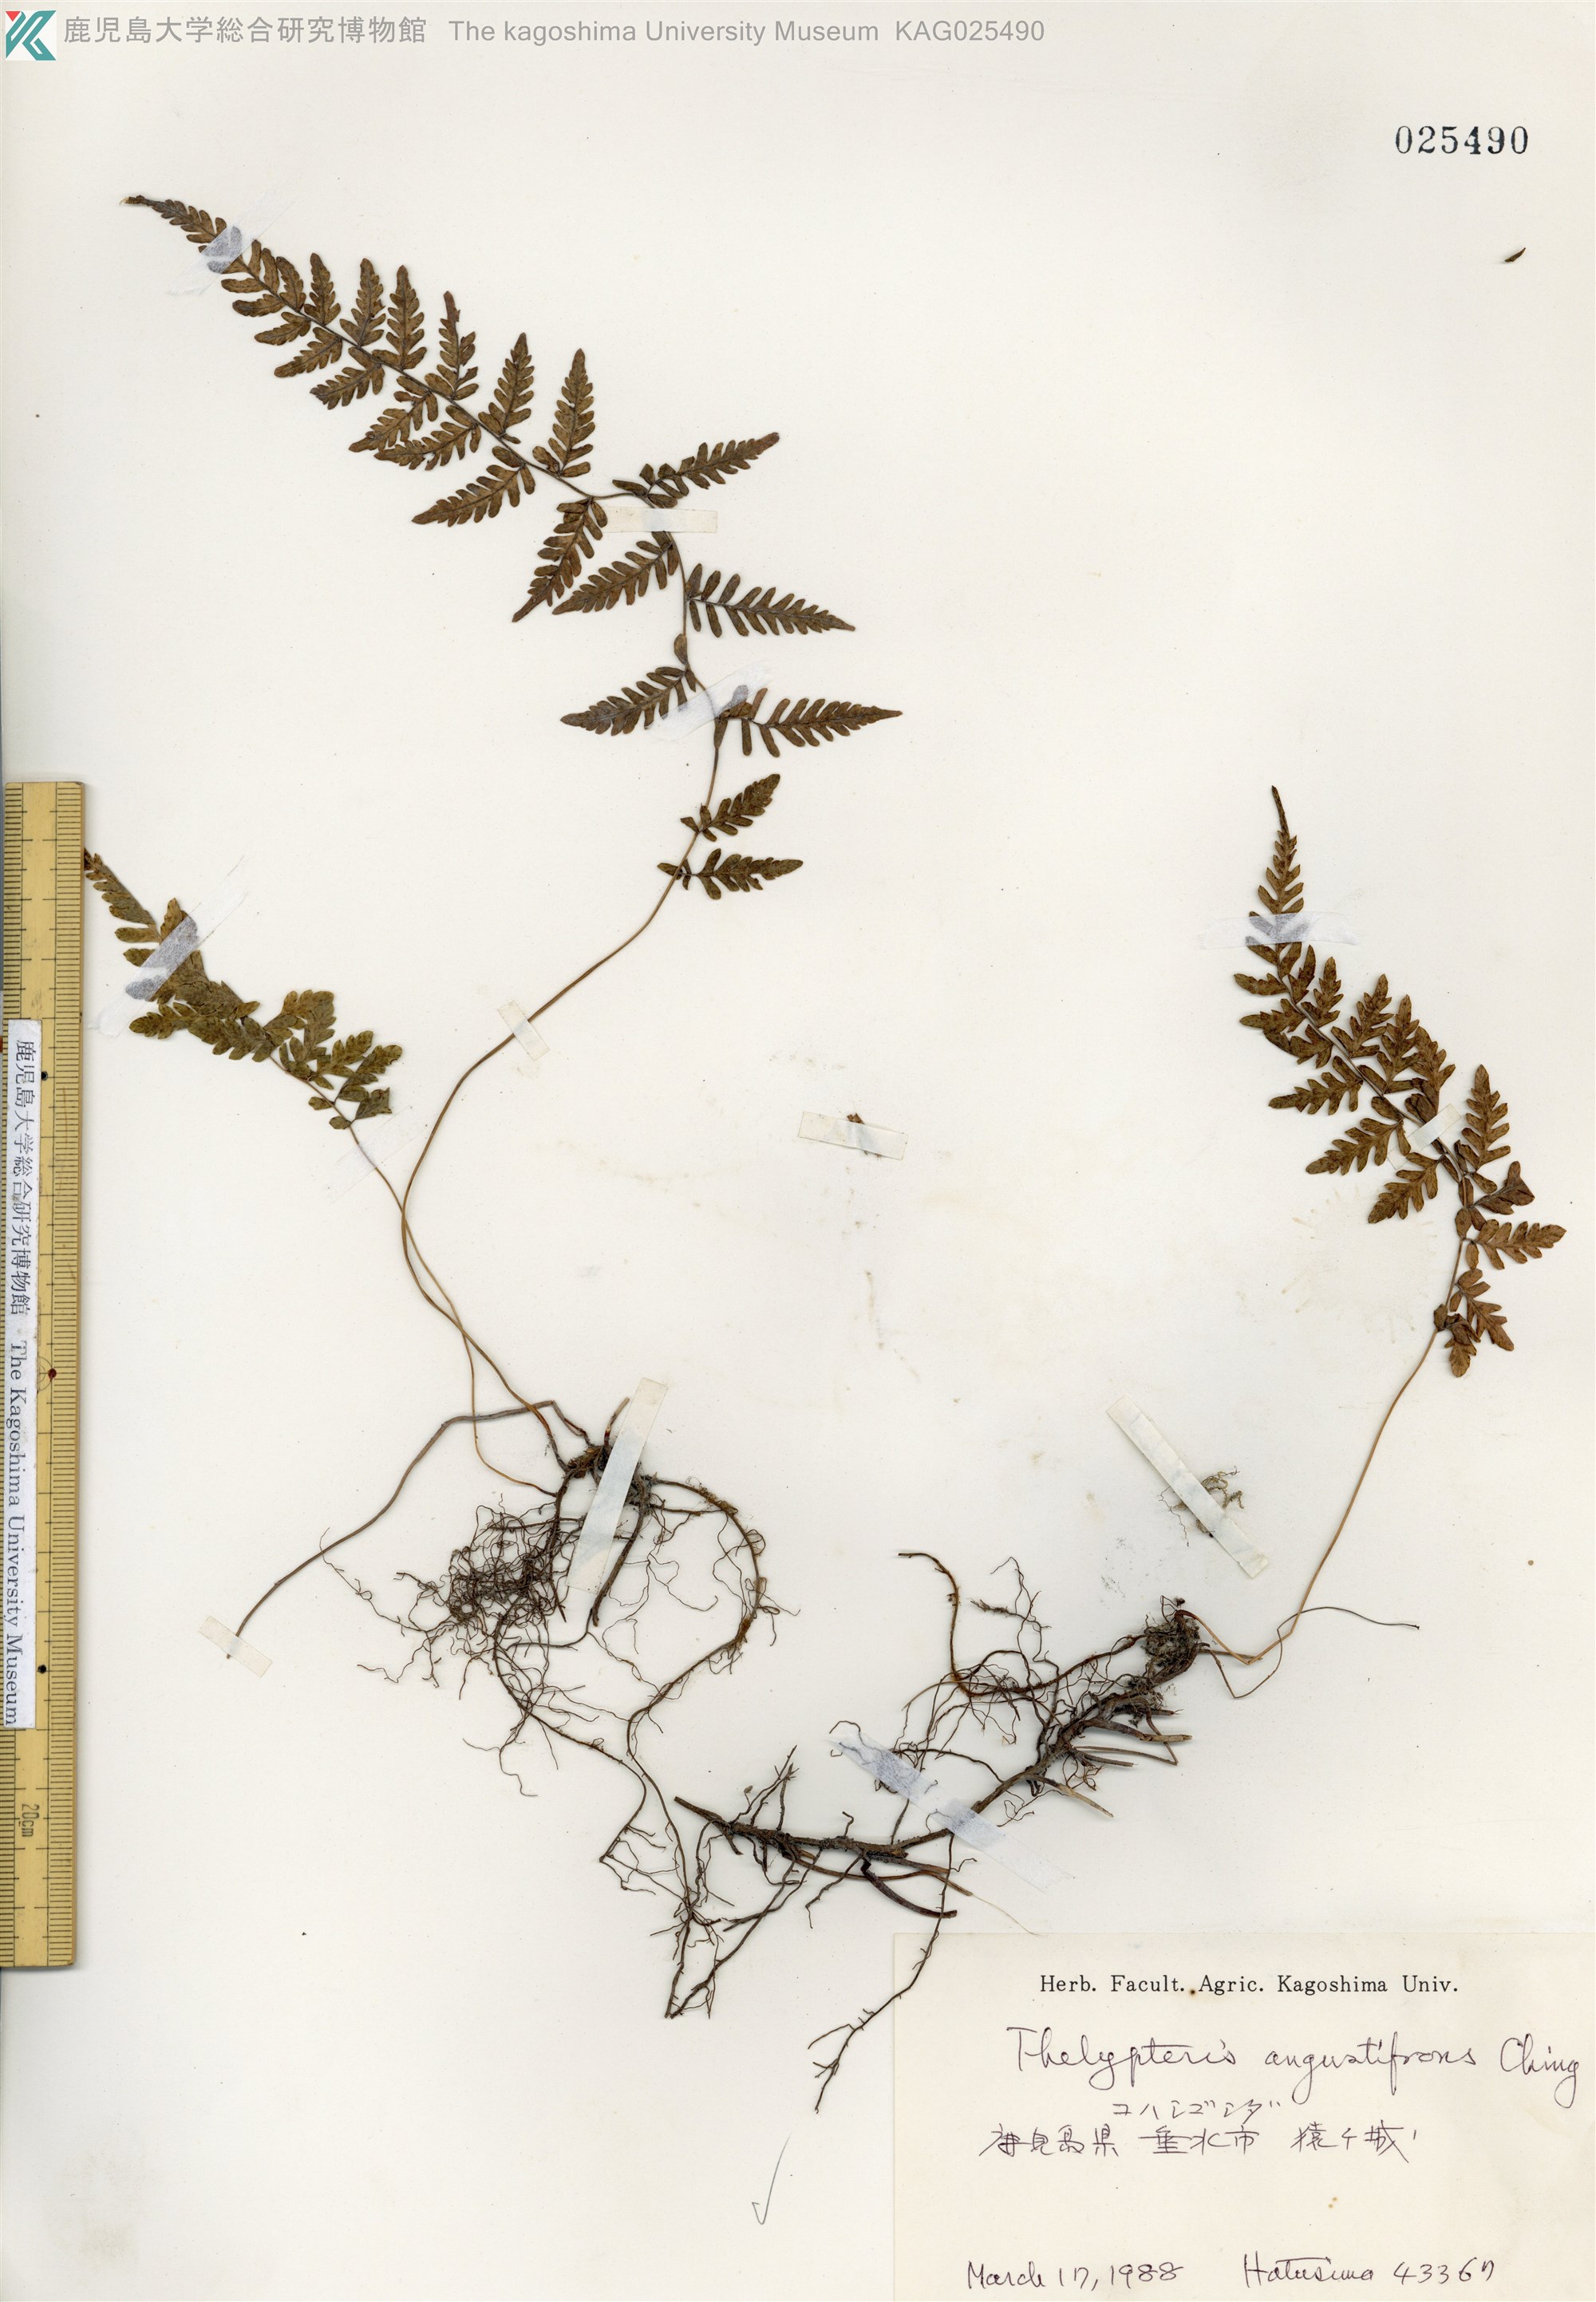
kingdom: Plantae
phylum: Tracheophyta
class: Polypodiopsida
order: Polypodiales
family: Thelypteridaceae
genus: Amauropelta
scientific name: Amauropelta cystopteroides
